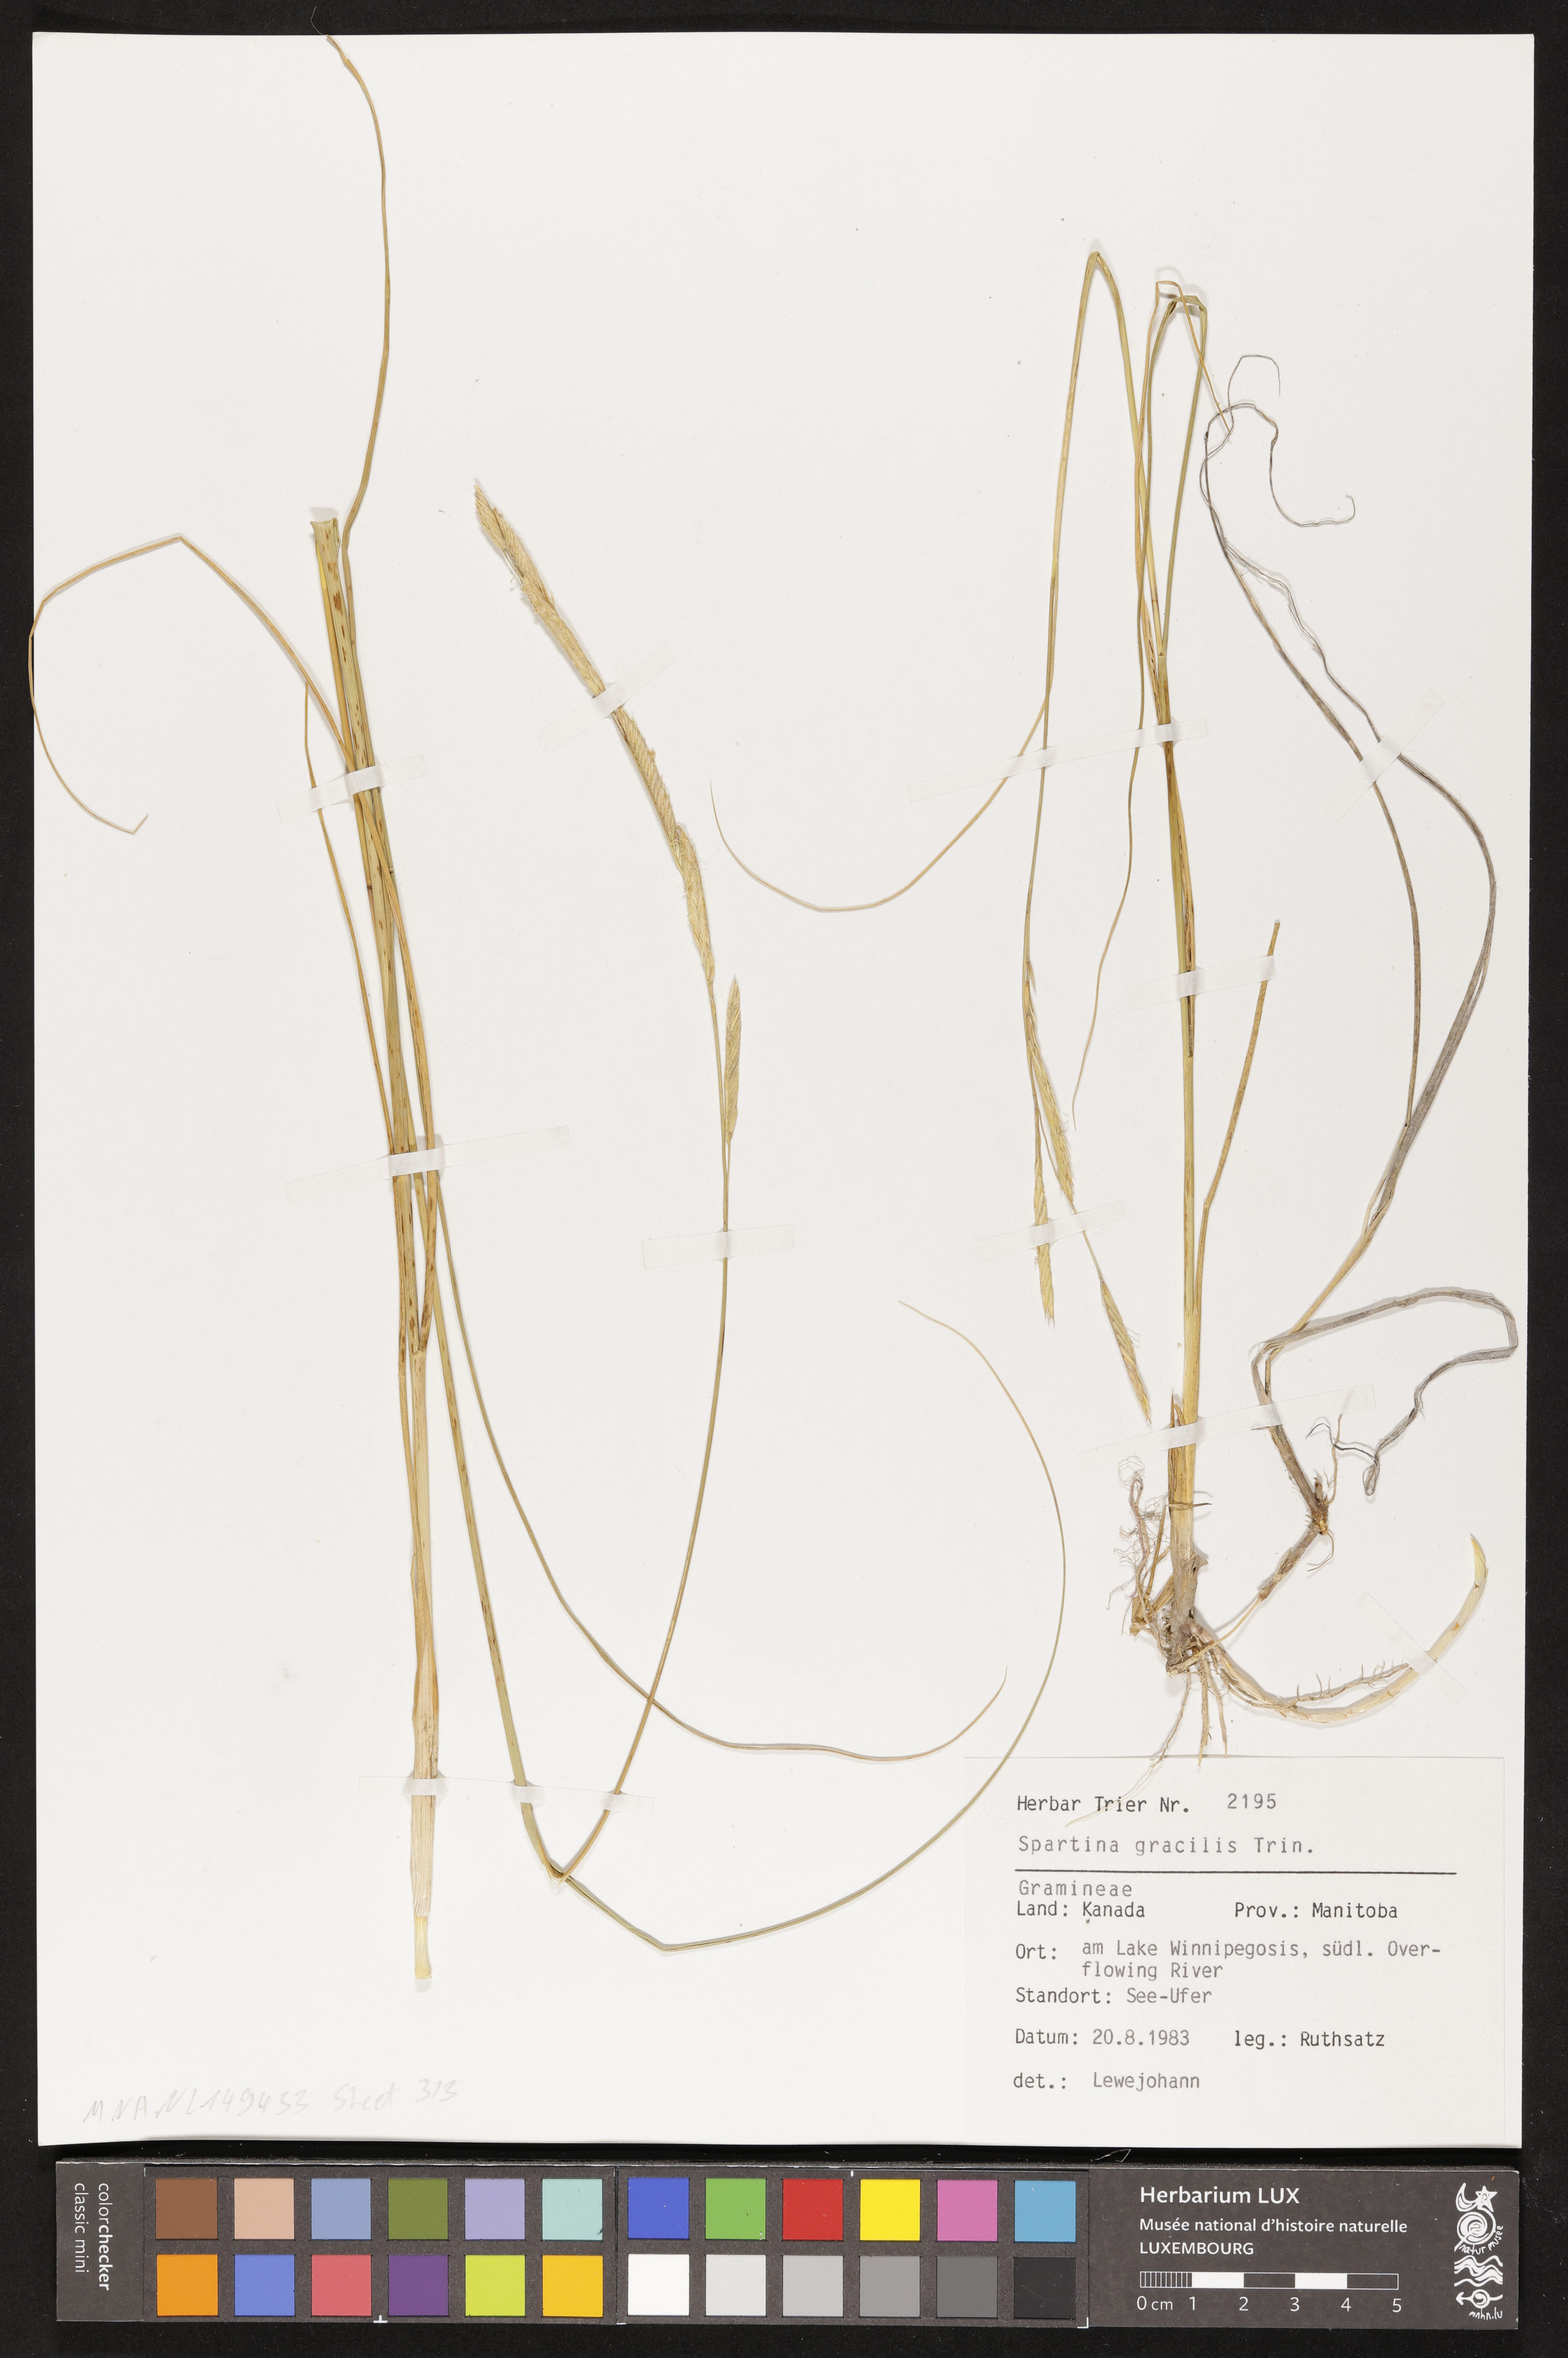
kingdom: Plantae
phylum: Tracheophyta
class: Liliopsida
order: Poales
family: Poaceae
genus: Sporobolus
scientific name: Sporobolus hookerianus
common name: Alkali cordgrass
